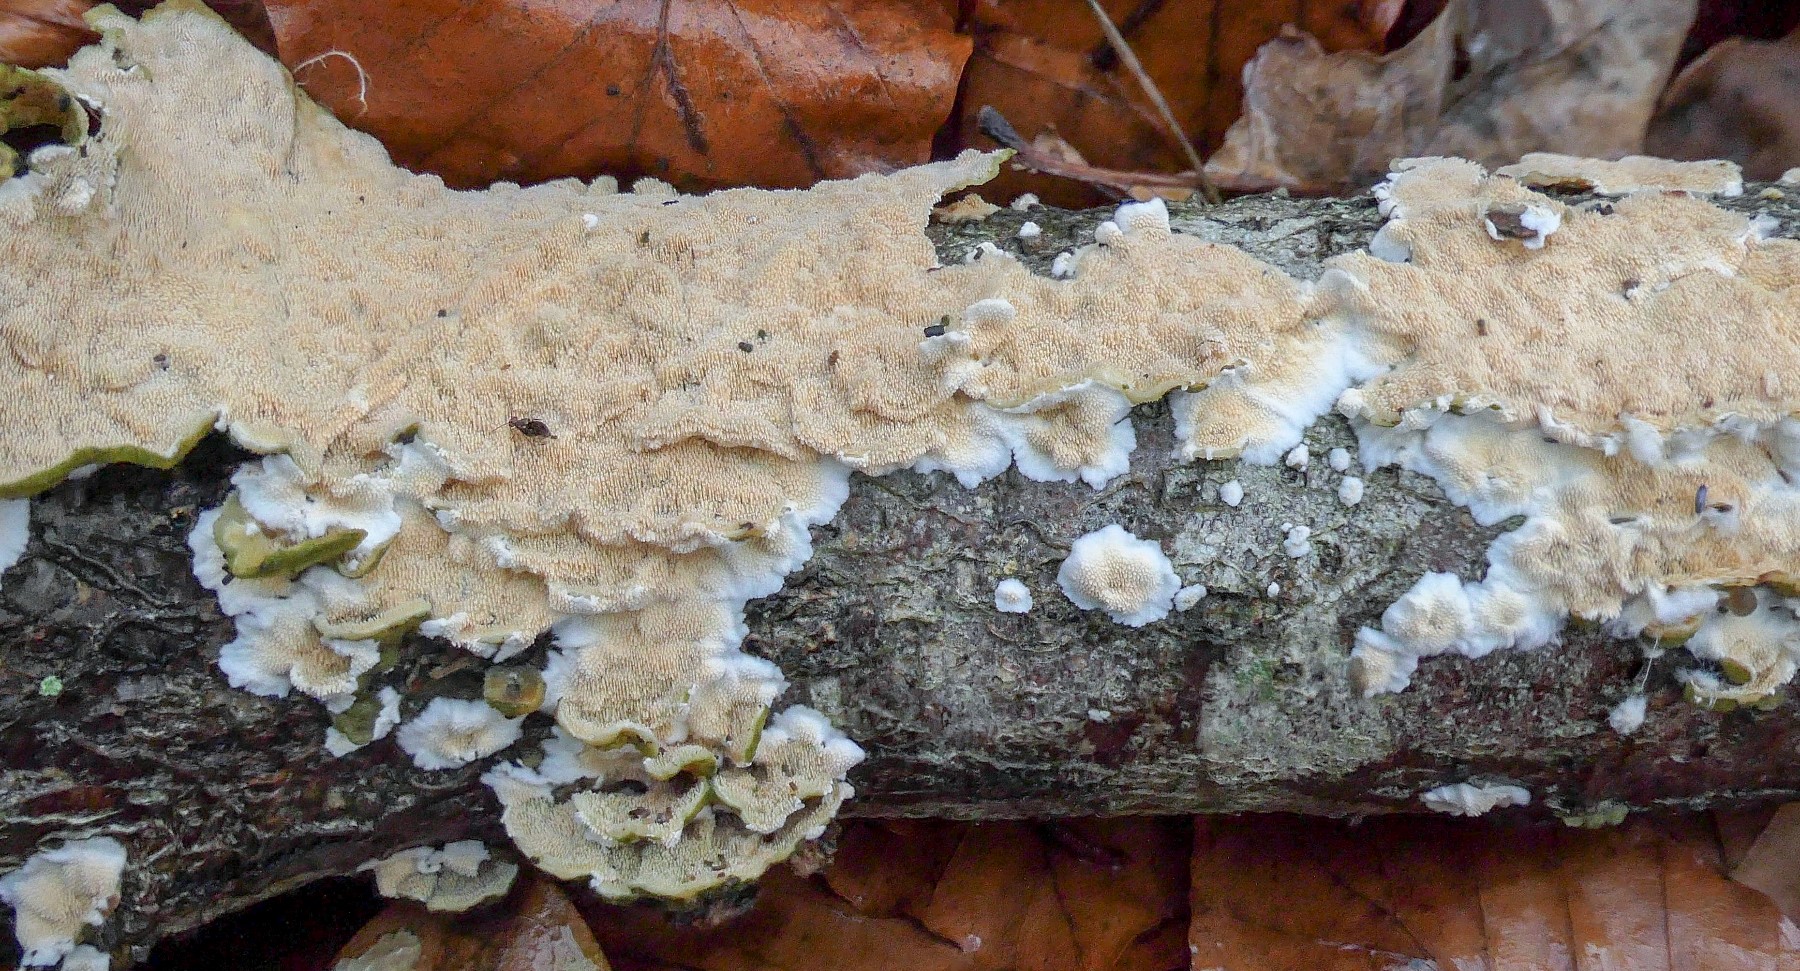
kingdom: Fungi
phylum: Basidiomycota
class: Agaricomycetes
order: Polyporales
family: Steccherinaceae
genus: Steccherinum
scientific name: Steccherinum ochraceum
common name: almindelig skønpig
